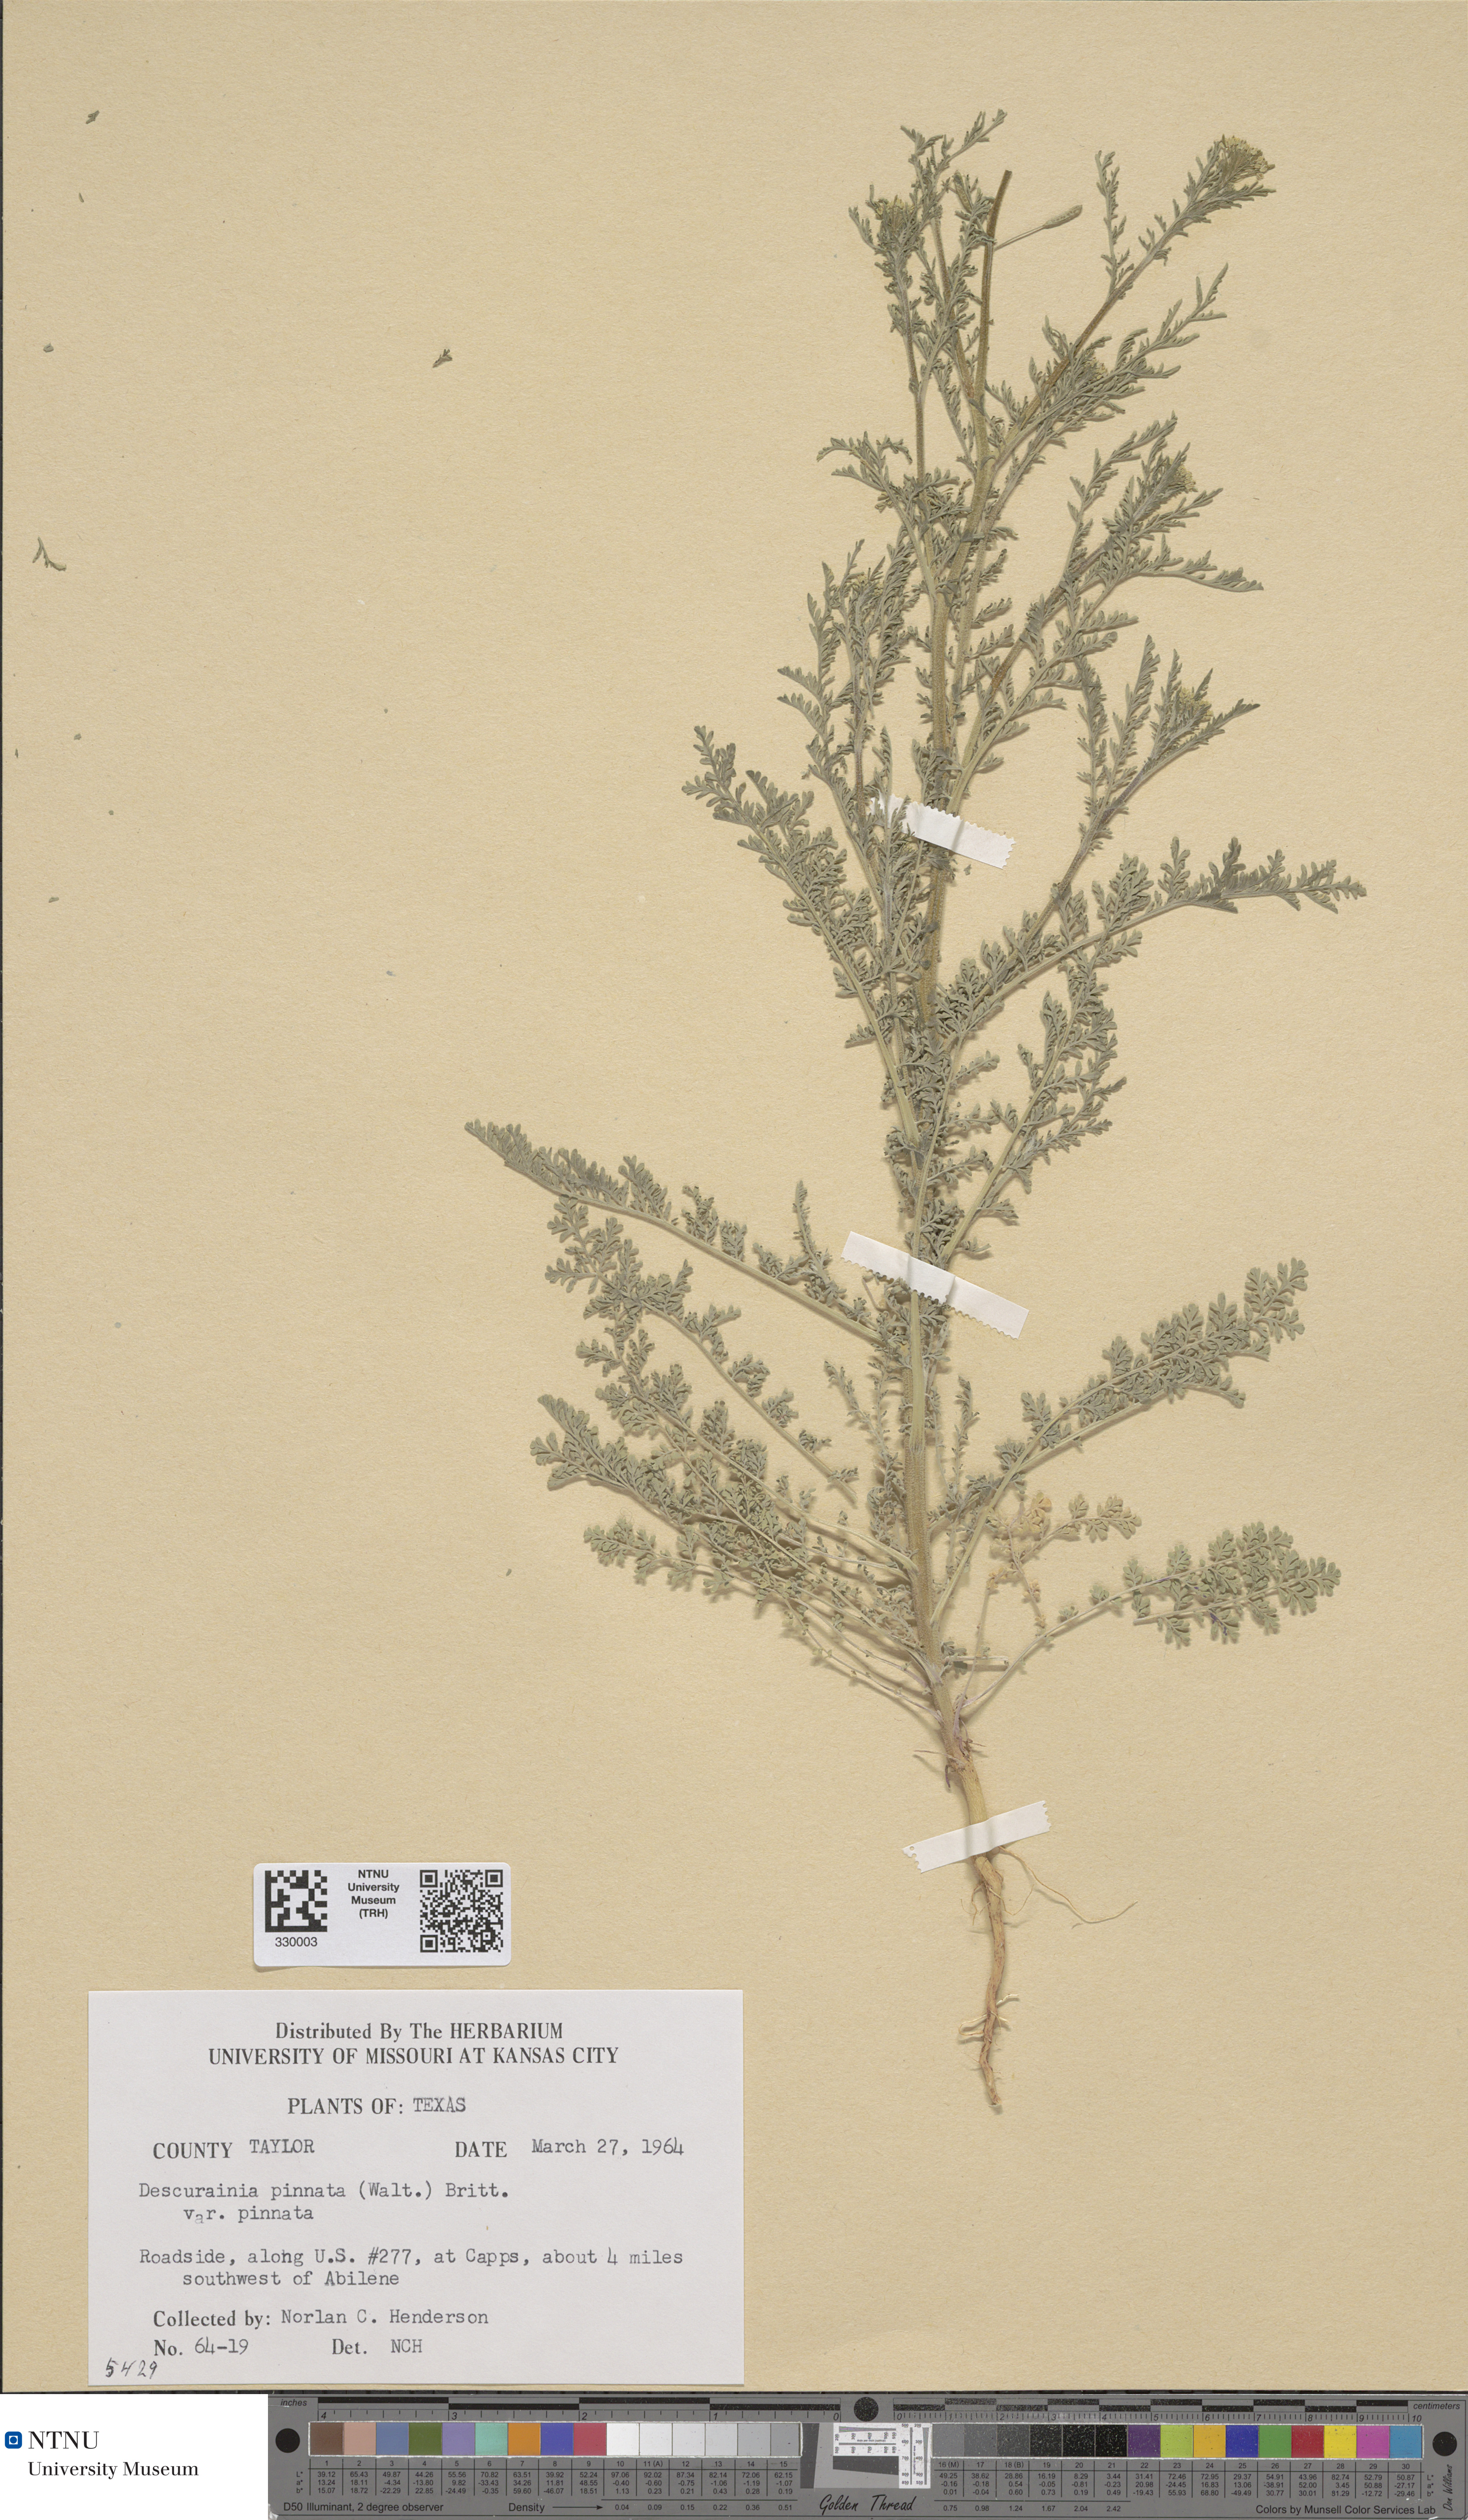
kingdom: Plantae
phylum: Tracheophyta
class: Magnoliopsida
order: Brassicales
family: Brassicaceae
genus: Descurainia
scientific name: Descurainia pinnata
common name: Western tansy mustard
